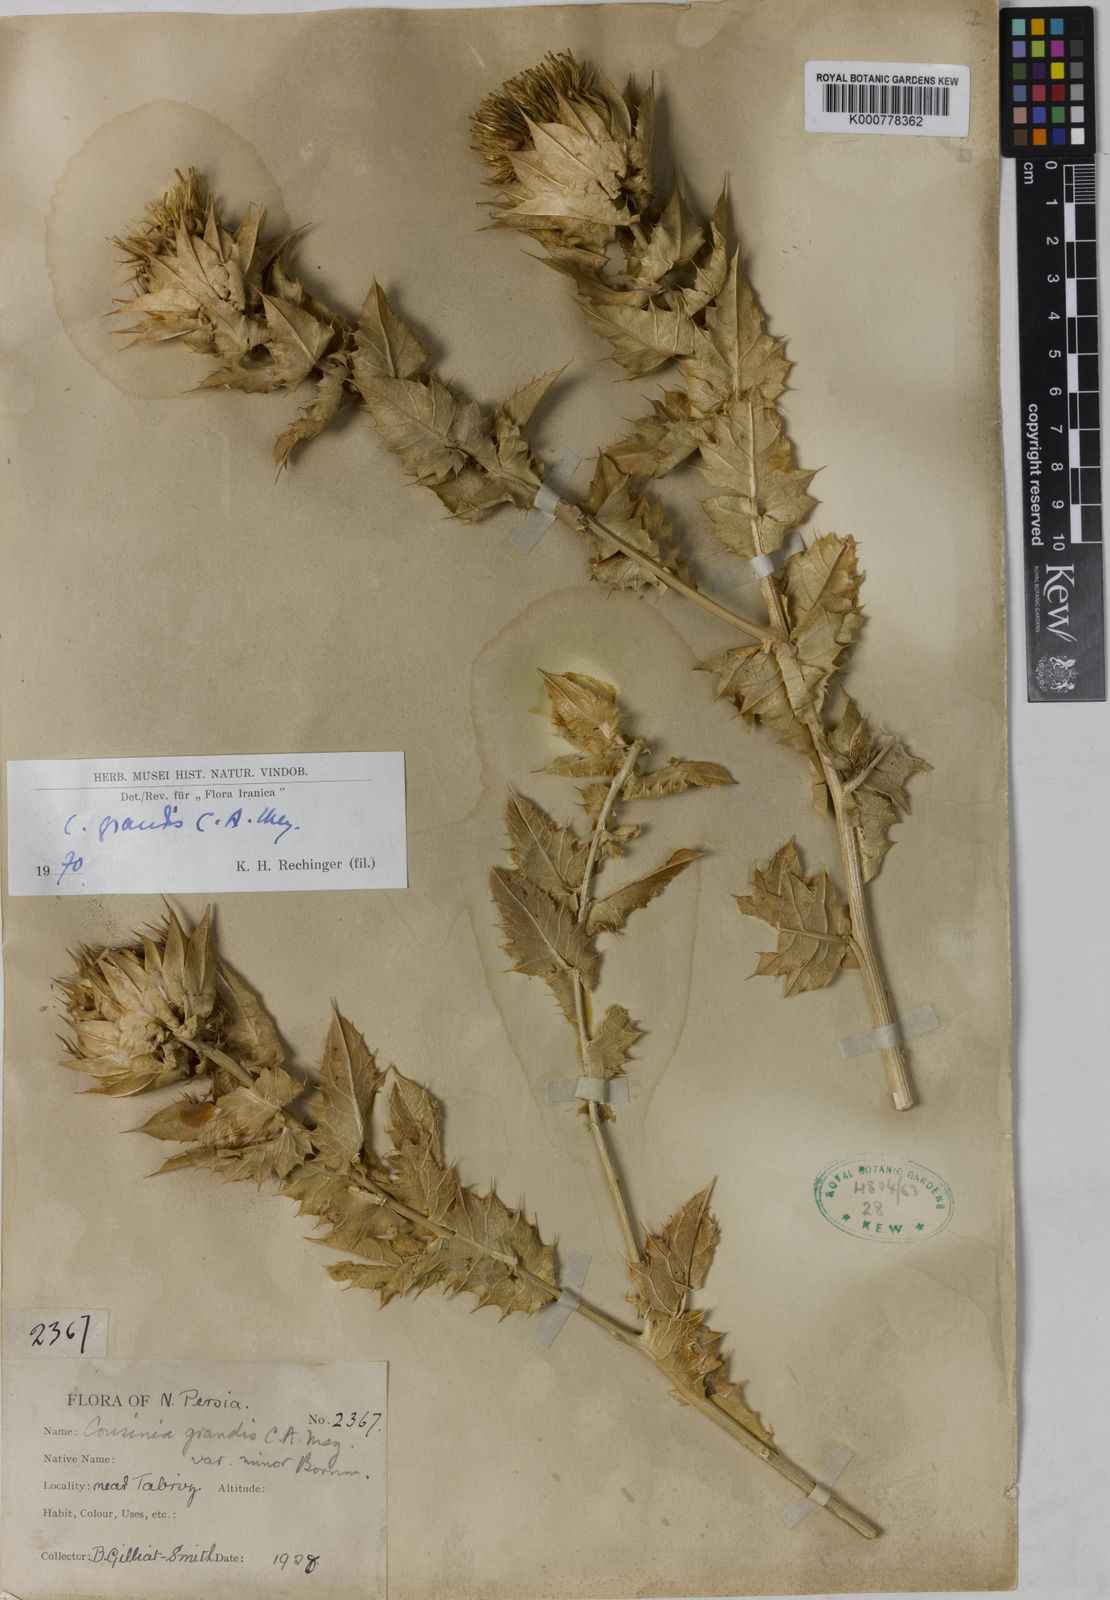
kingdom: Plantae
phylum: Tracheophyta
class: Magnoliopsida
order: Asterales
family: Asteraceae
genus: Cousinia
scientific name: Cousinia grandis
